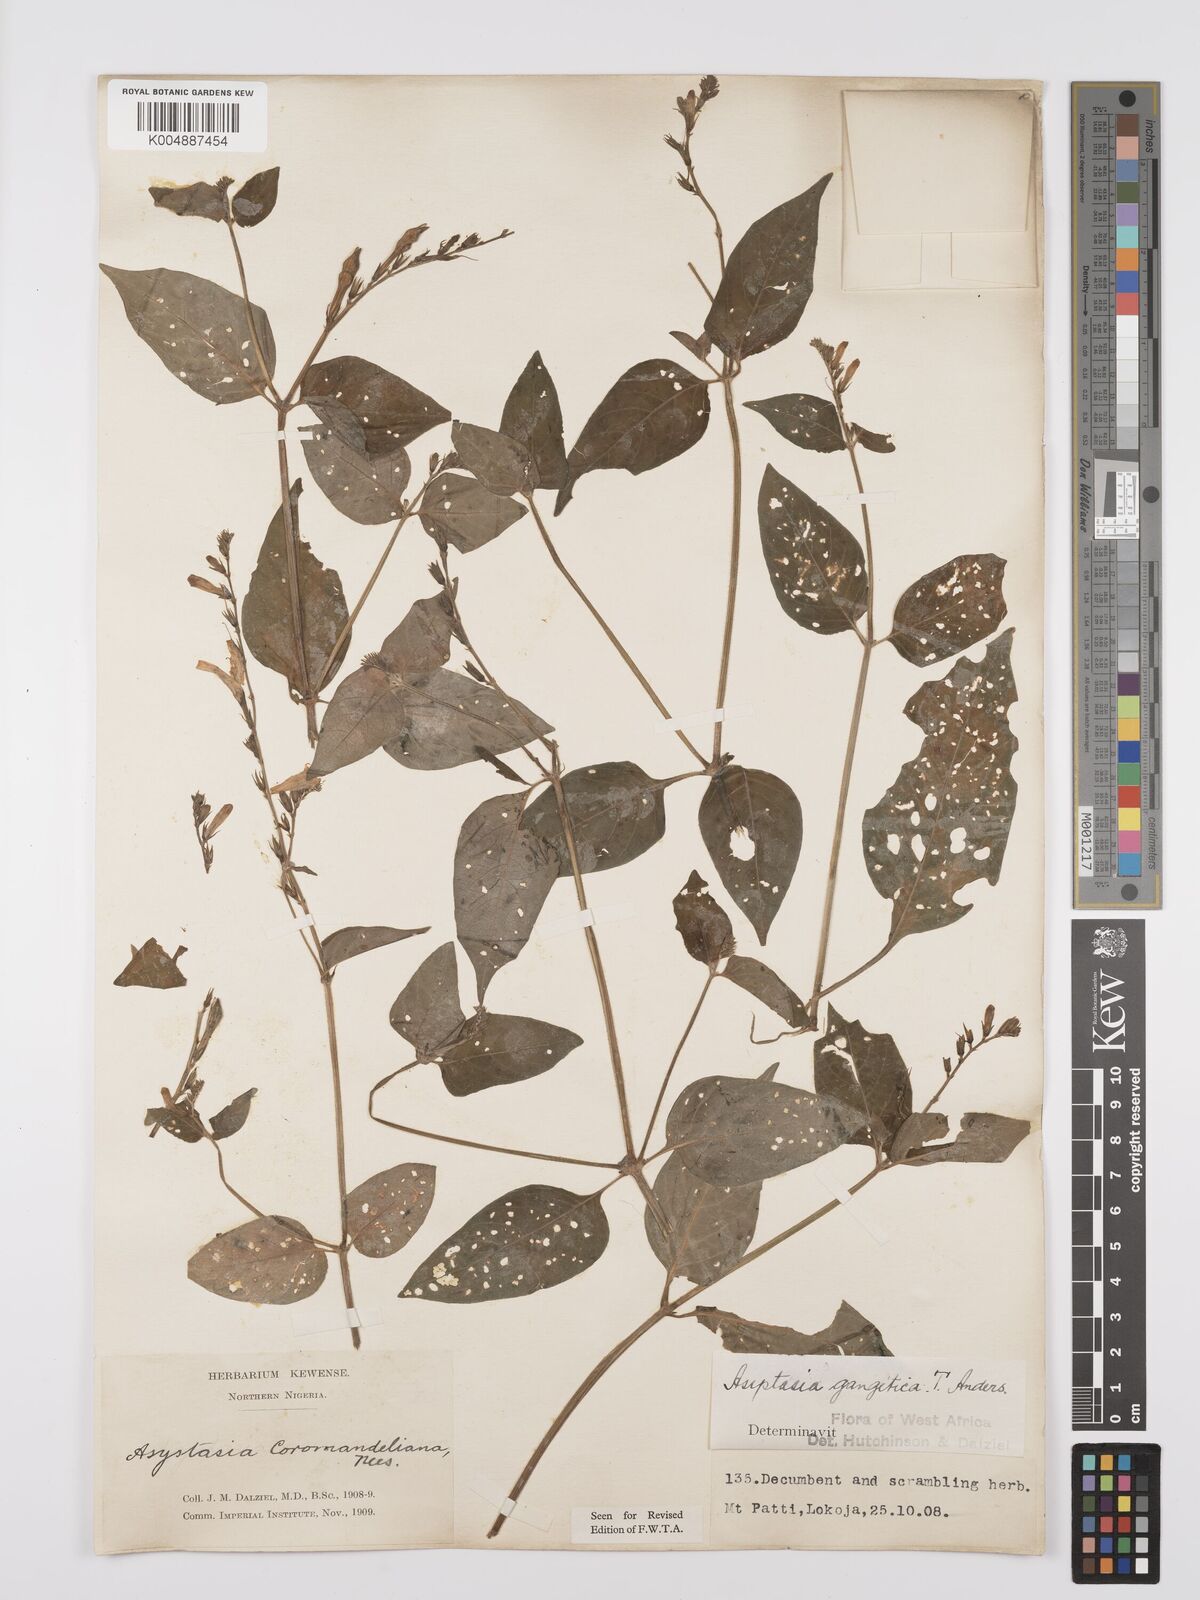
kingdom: Plantae
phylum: Tracheophyta
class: Magnoliopsida
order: Lamiales
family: Acanthaceae
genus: Asystasia
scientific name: Asystasia gangetica
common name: Chinese violet
